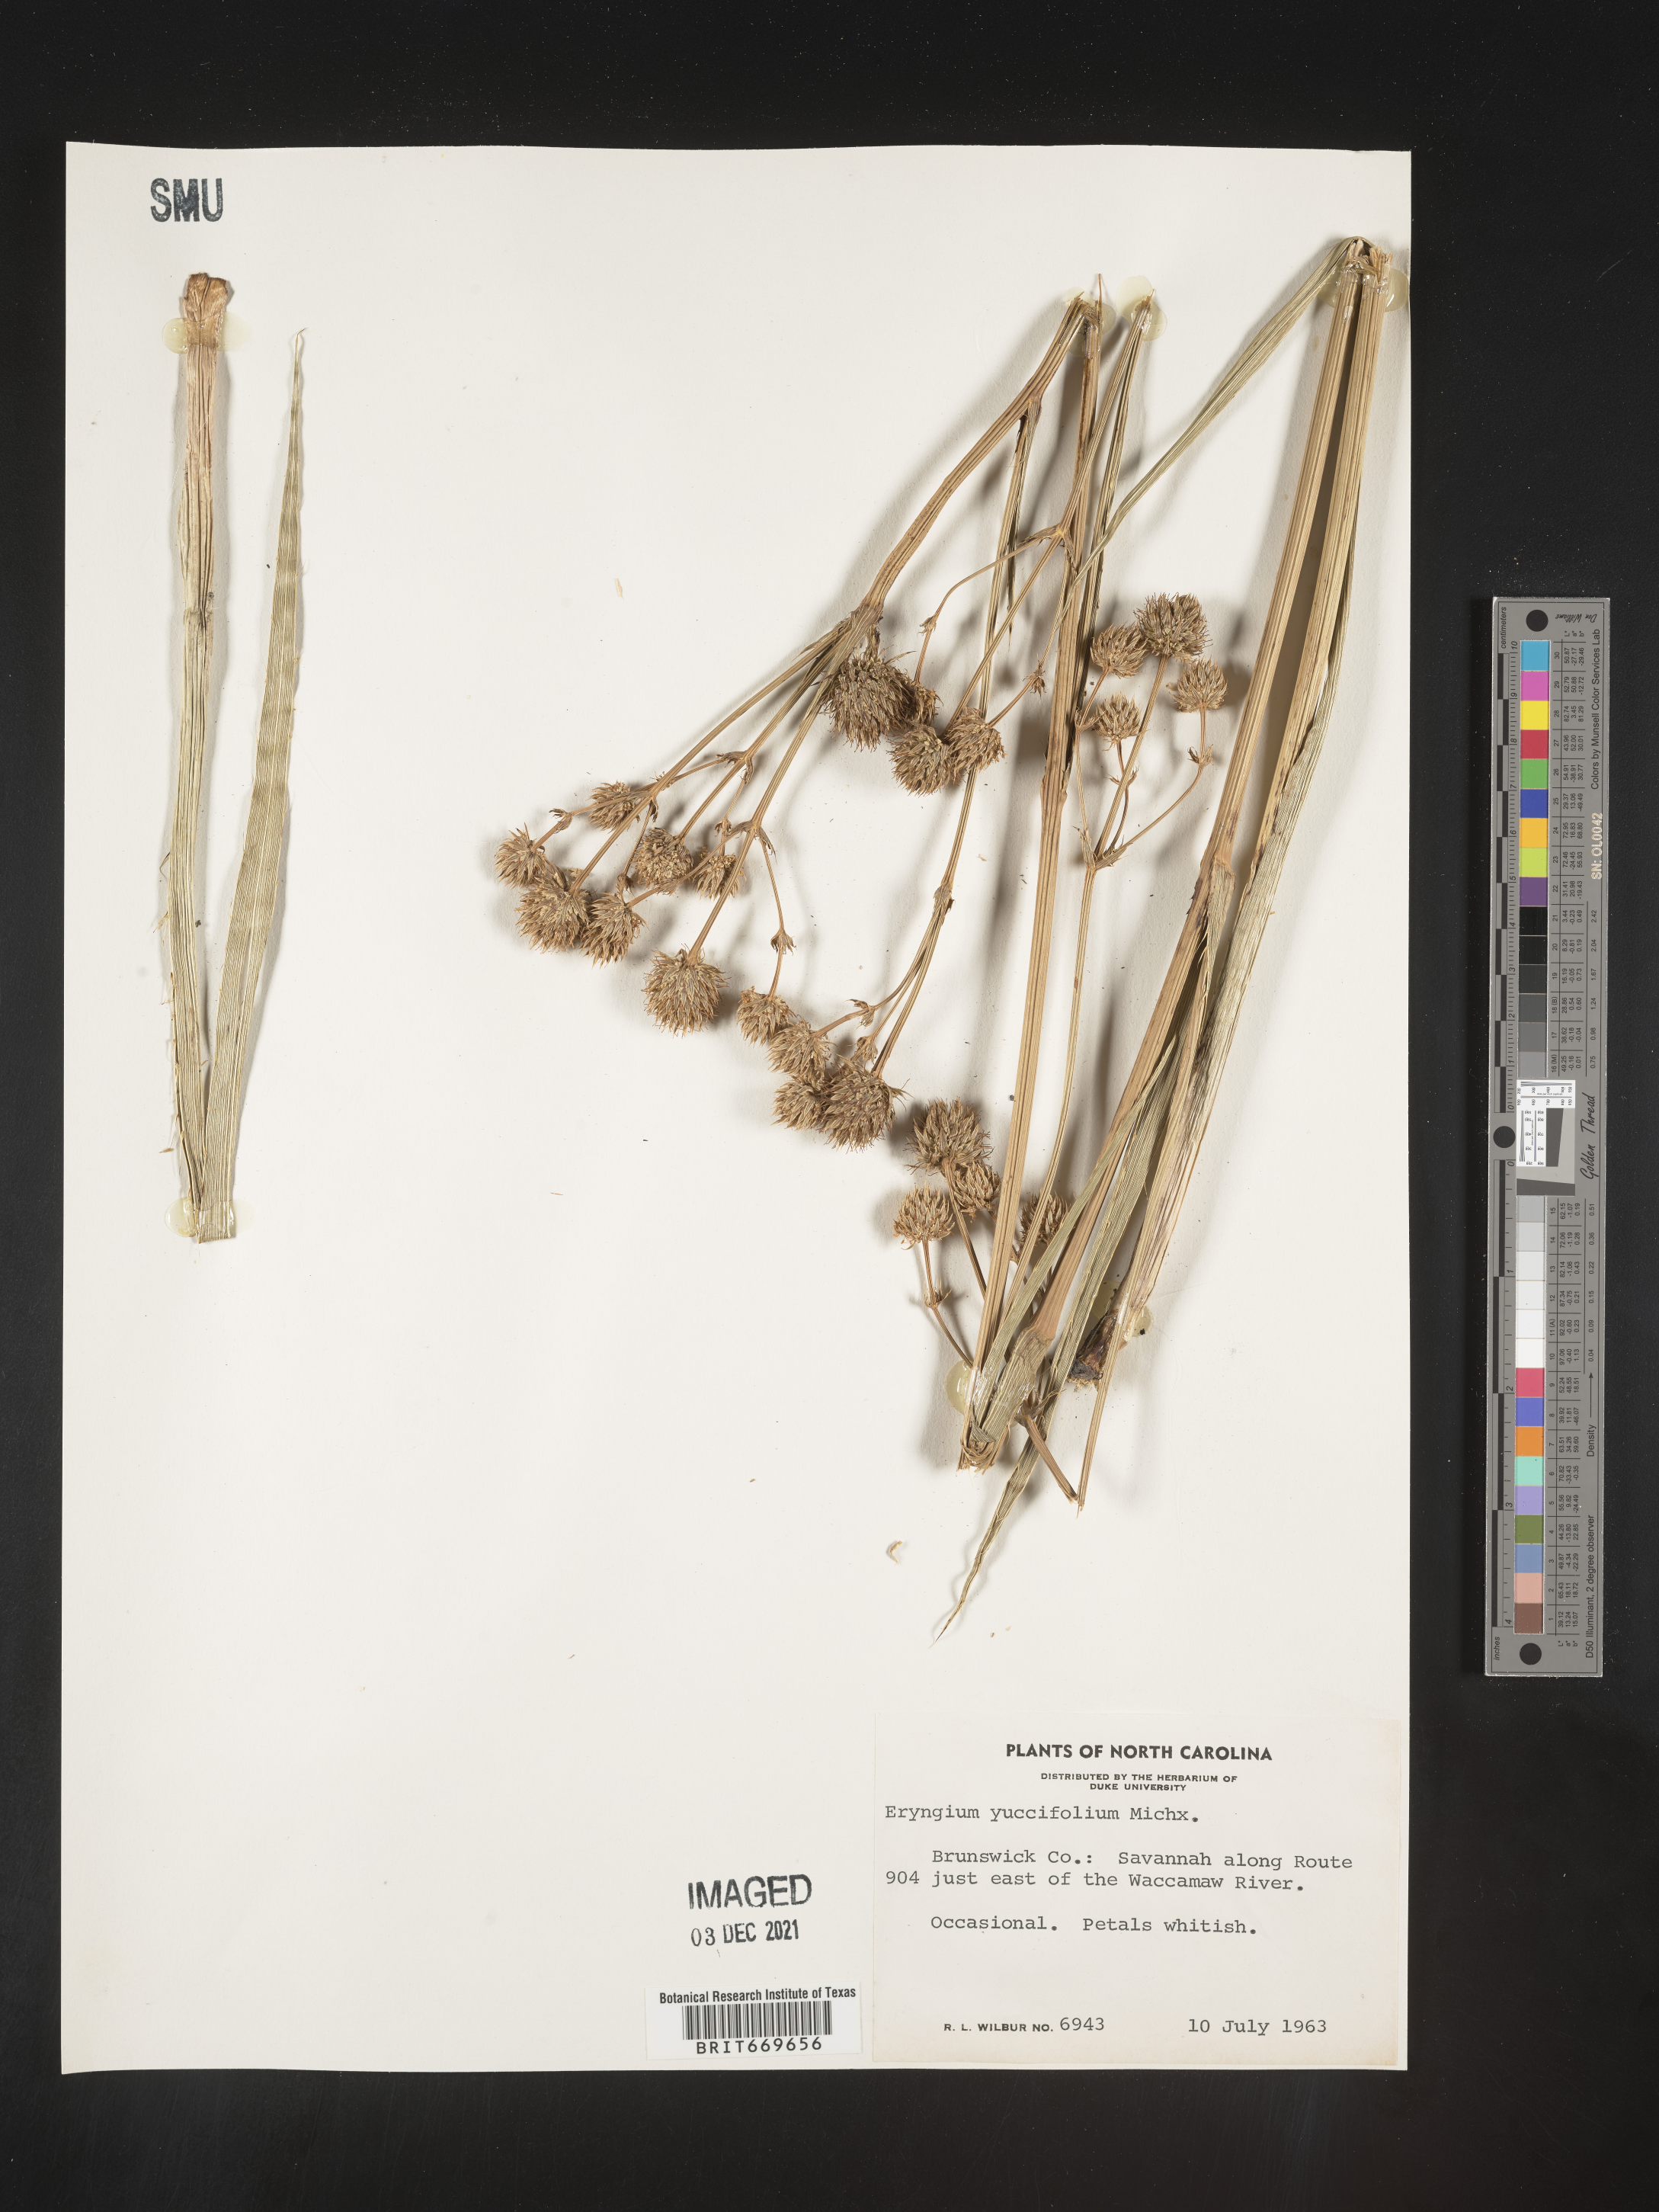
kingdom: Plantae
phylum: Tracheophyta
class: Magnoliopsida
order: Apiales
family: Apiaceae
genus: Eryngium
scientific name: Eryngium yuccifolium
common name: Button eryngo
